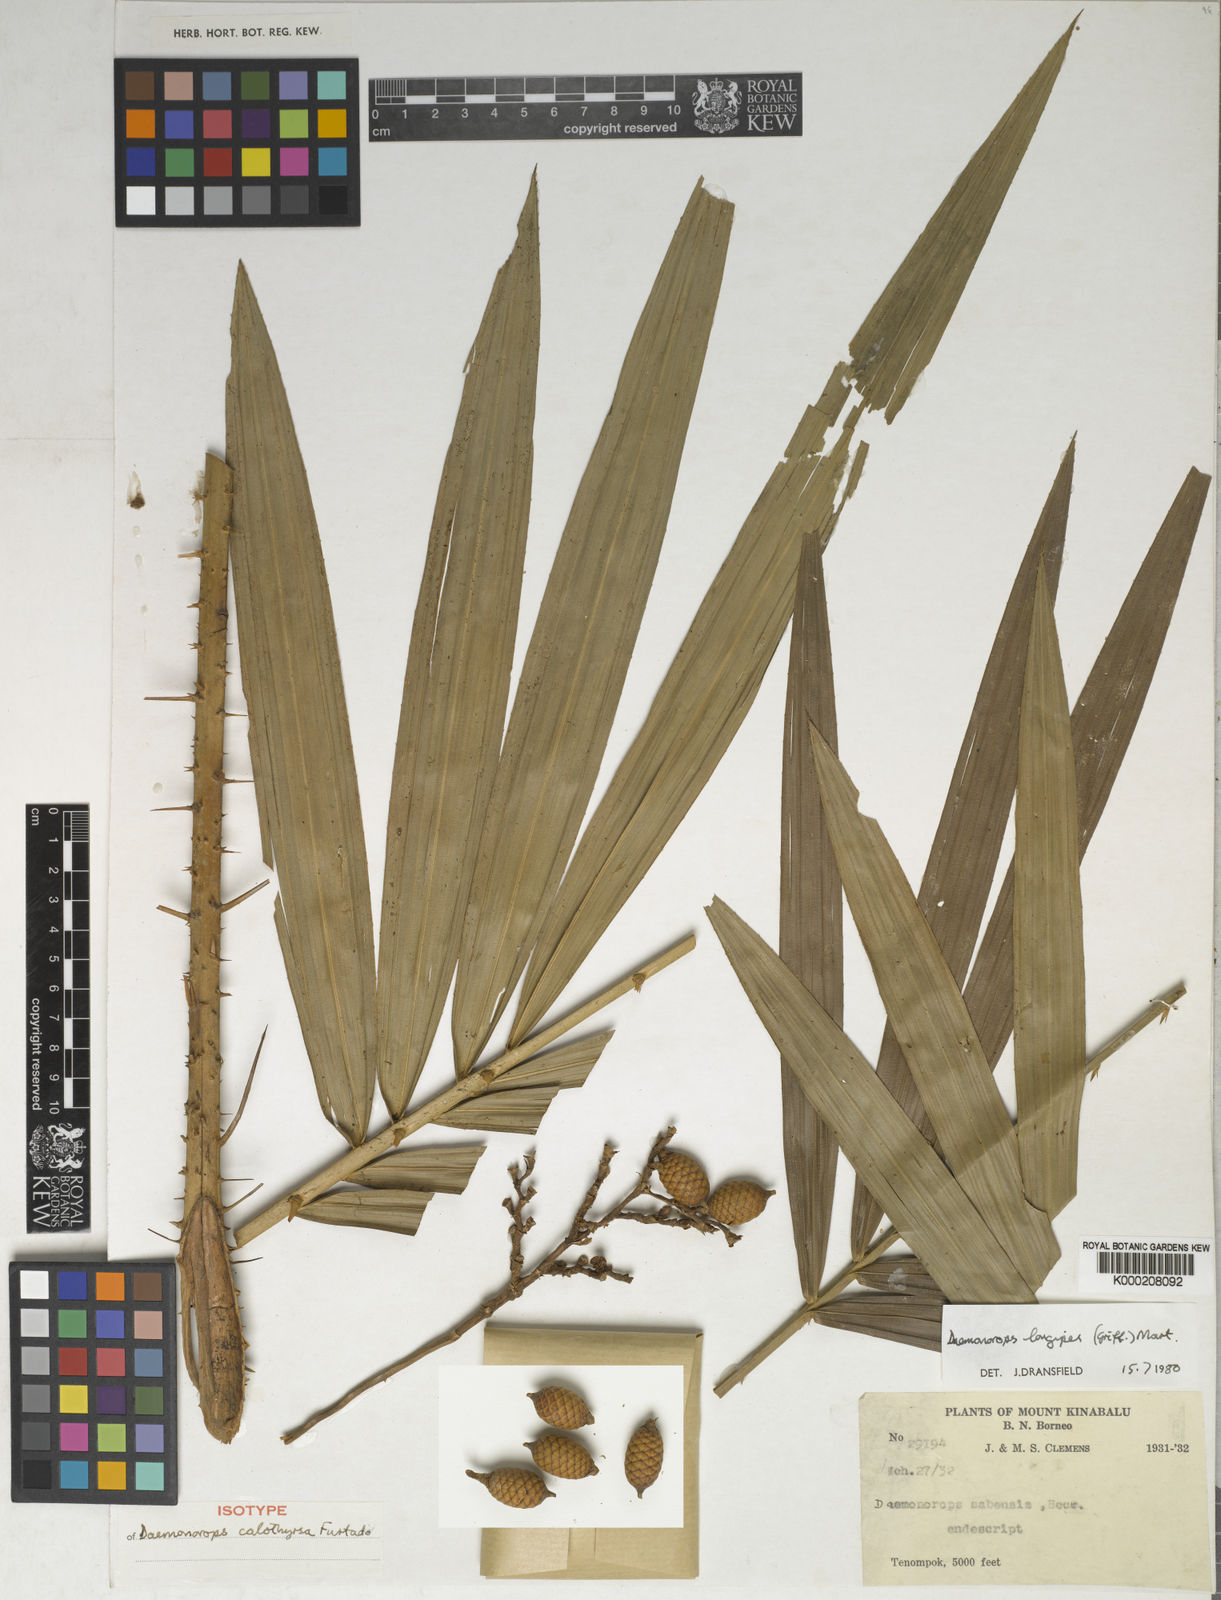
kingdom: Plantae
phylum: Tracheophyta
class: Liliopsida
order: Arecales
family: Arecaceae
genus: Calamus
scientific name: Calamus longipes
